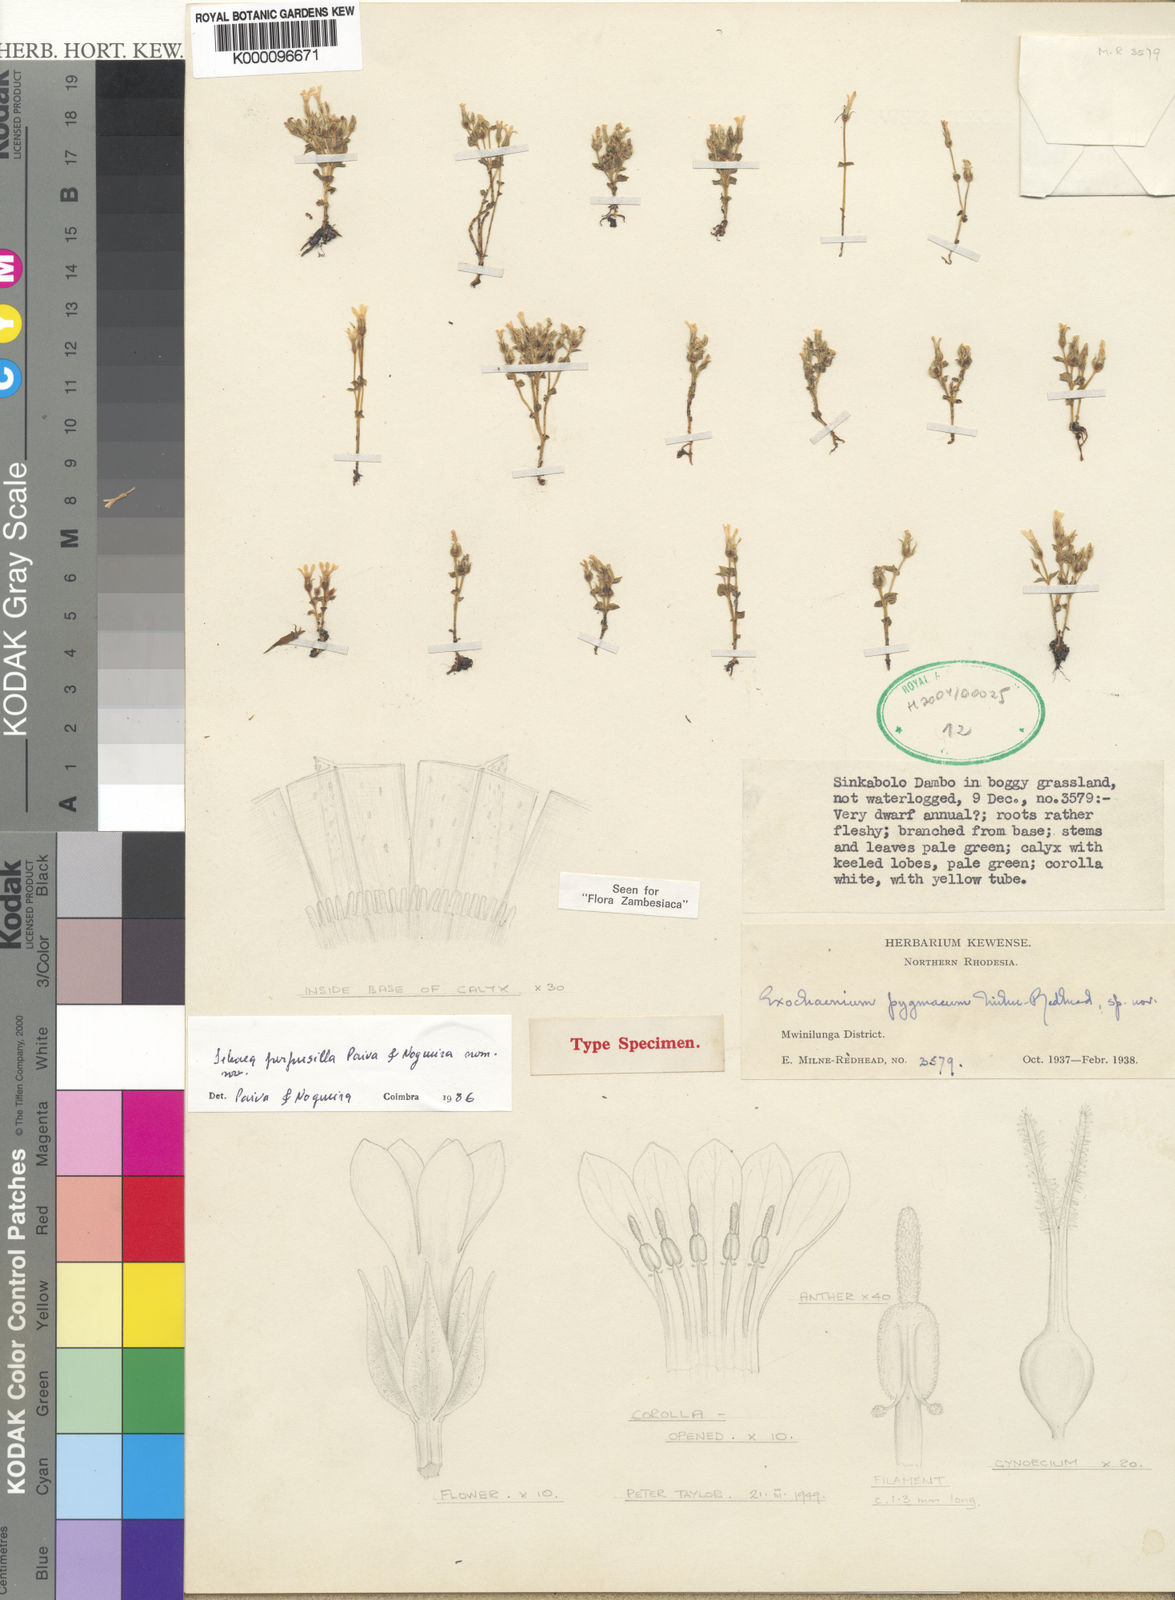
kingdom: Plantae
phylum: Tracheophyta
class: Magnoliopsida
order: Gentianales
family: Gentianaceae
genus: Exochaenium
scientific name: Exochaenium pygmaeum
